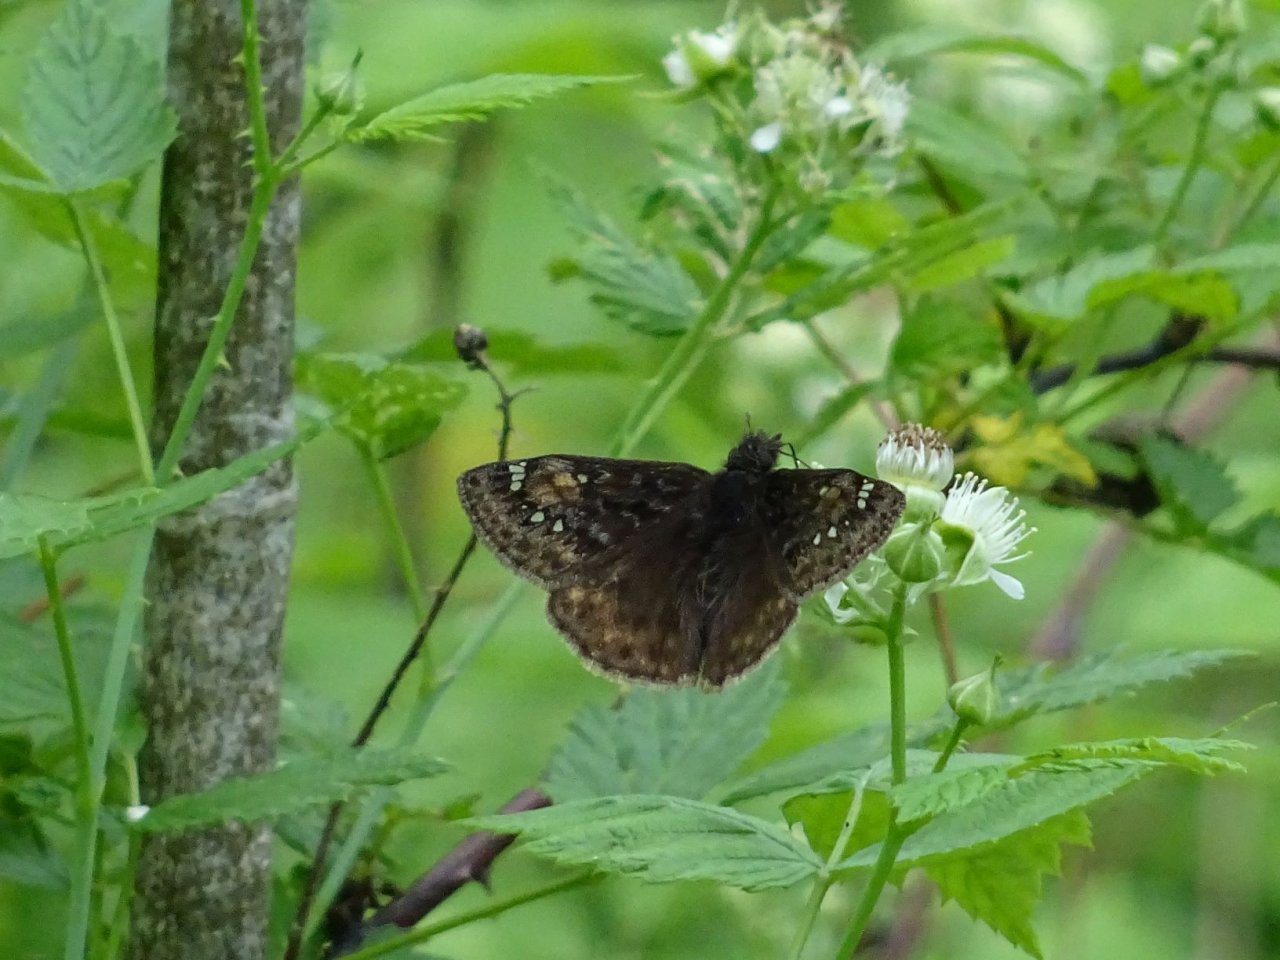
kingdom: Animalia
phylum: Arthropoda
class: Insecta
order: Lepidoptera
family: Hesperiidae
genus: Gesta
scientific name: Gesta
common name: Juvenal's Duskywing
